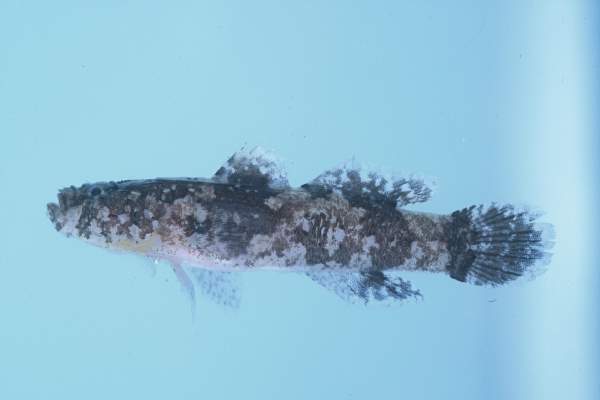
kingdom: Animalia
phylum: Chordata
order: Perciformes
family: Gobiidae
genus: Callogobius
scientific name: Callogobius flavobrunneus
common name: Slimy goby
